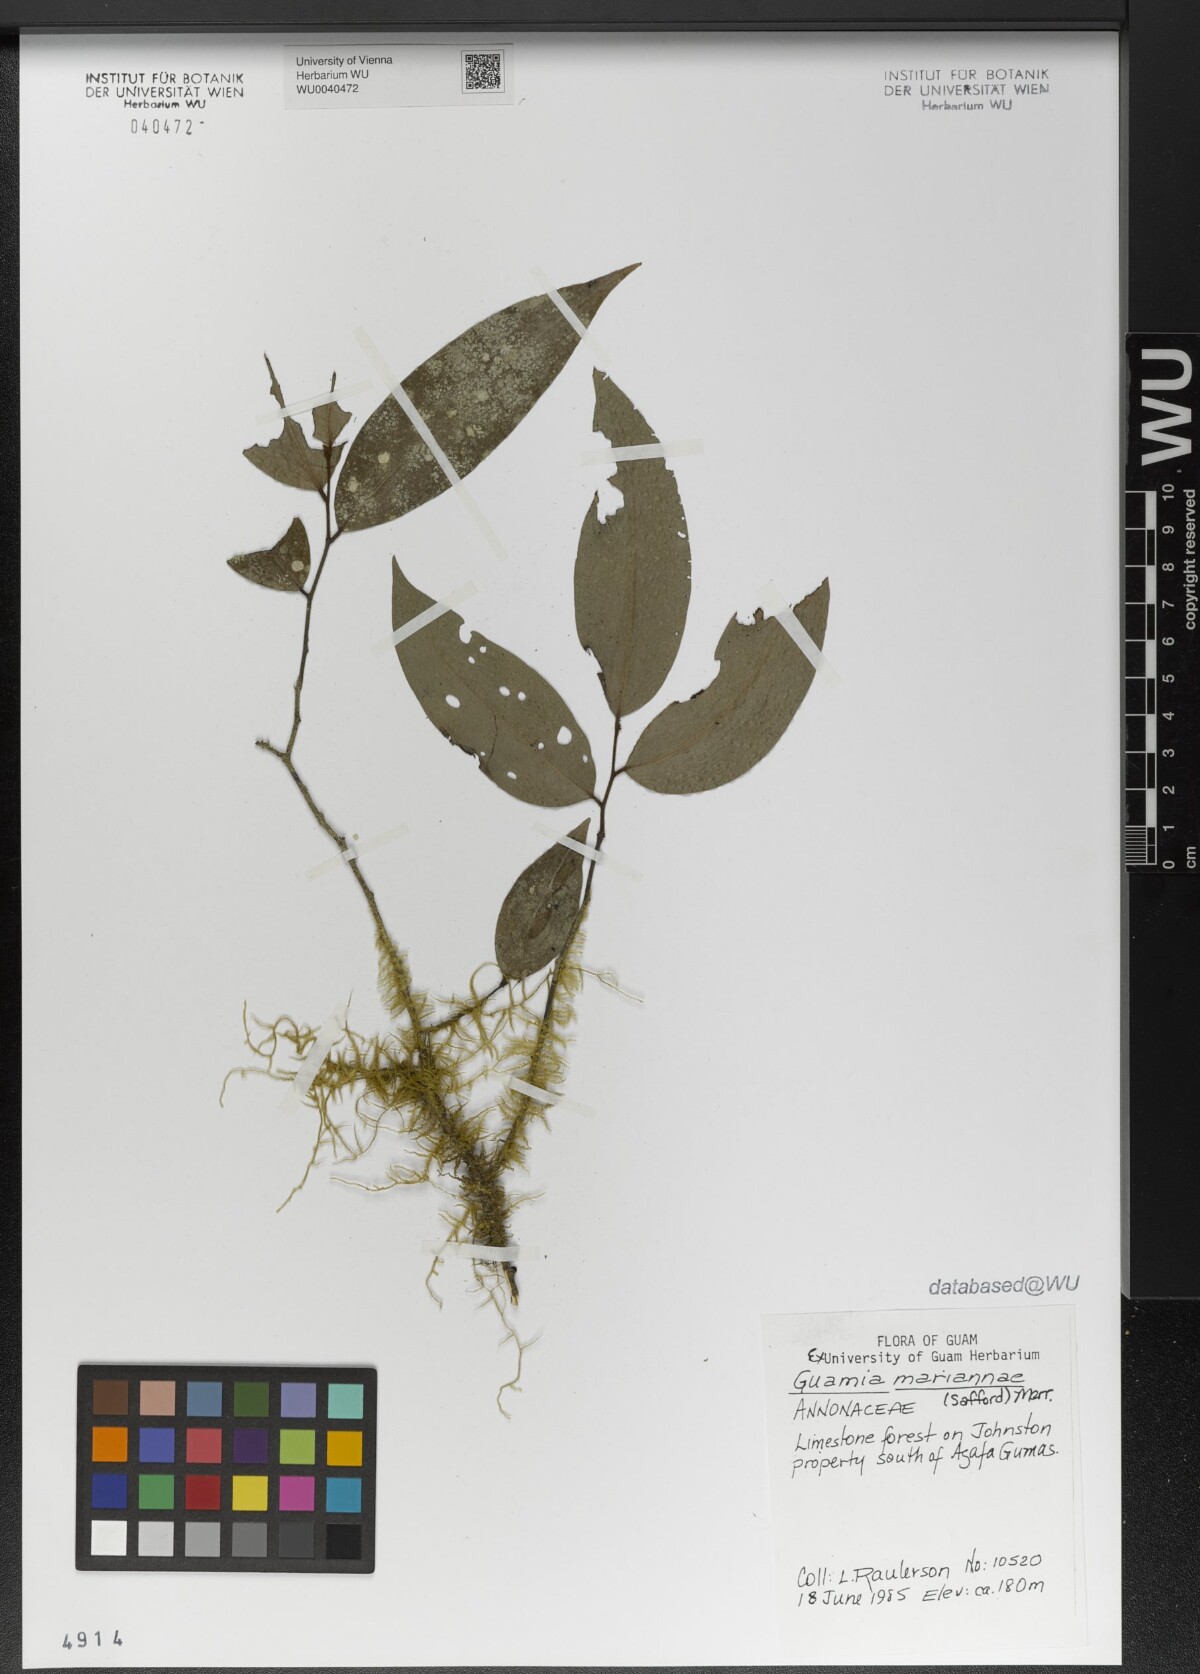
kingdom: Plantae
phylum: Tracheophyta
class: Magnoliopsida
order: Magnoliales
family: Annonaceae
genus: Meiogyne
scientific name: Meiogyne cylindrocarpa
